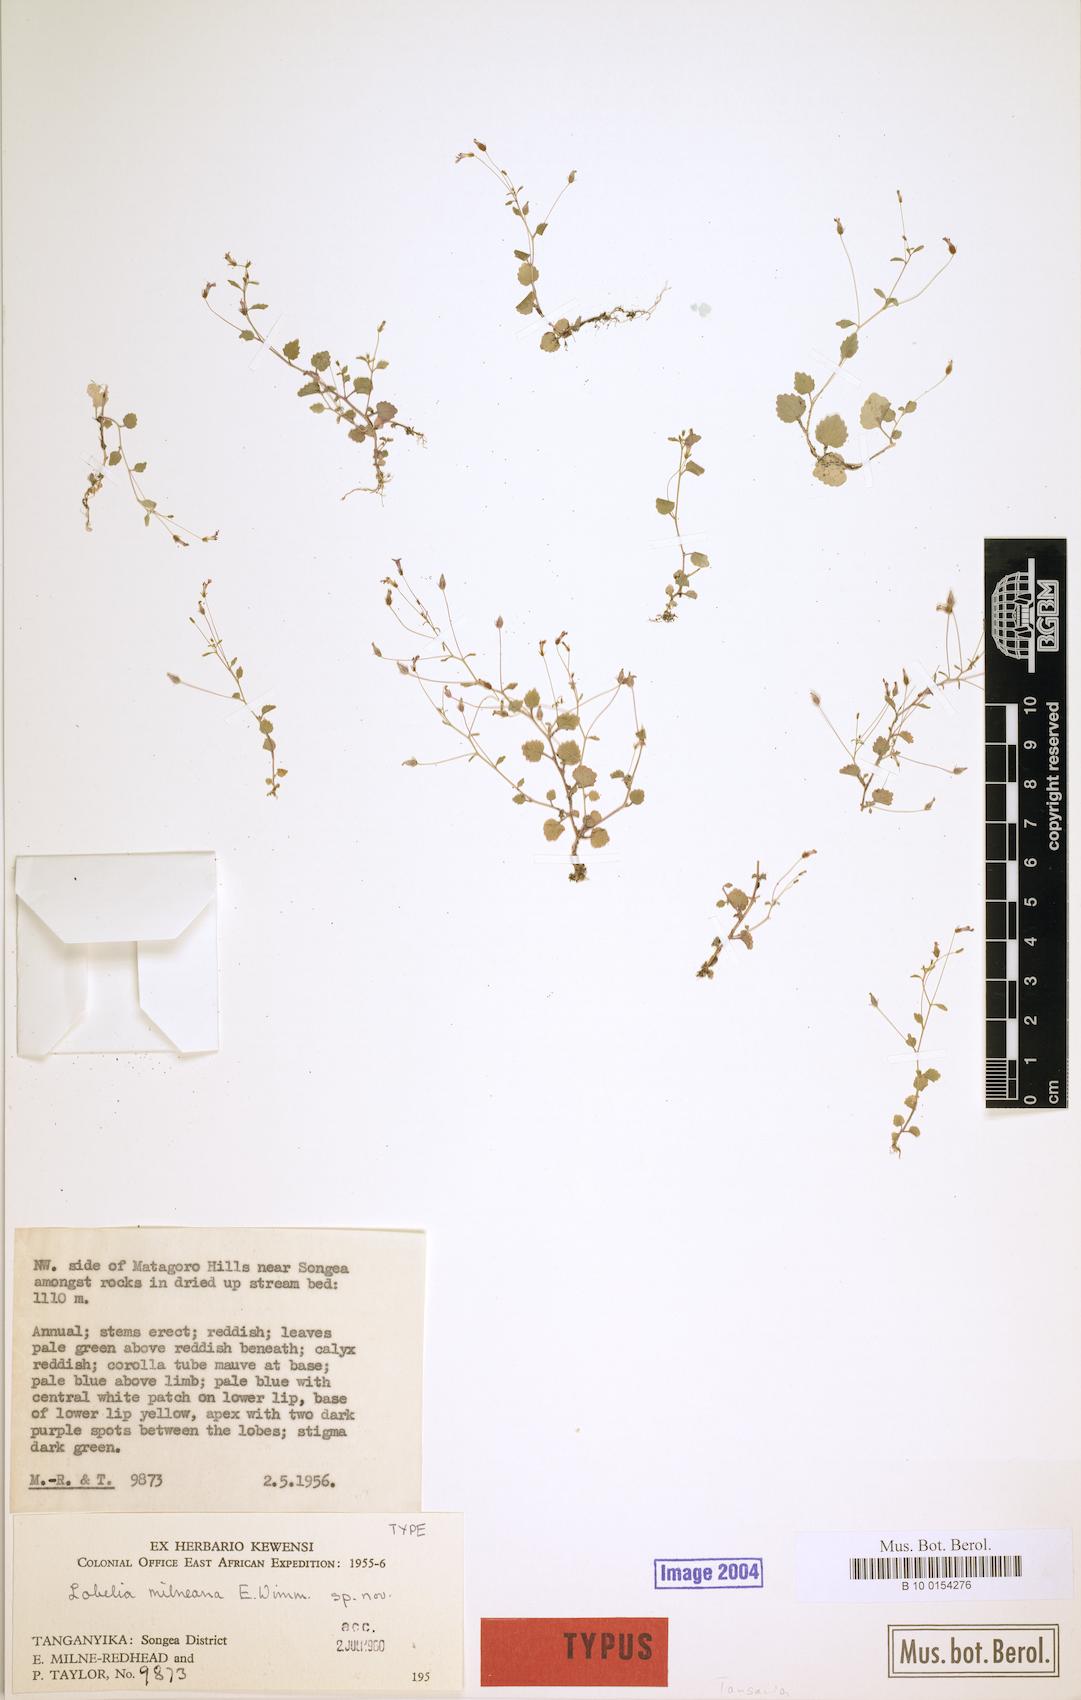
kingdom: Plantae
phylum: Tracheophyta
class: Magnoliopsida
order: Asterales
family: Campanulaceae
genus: Lobelia
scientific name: Lobelia trullifolia
